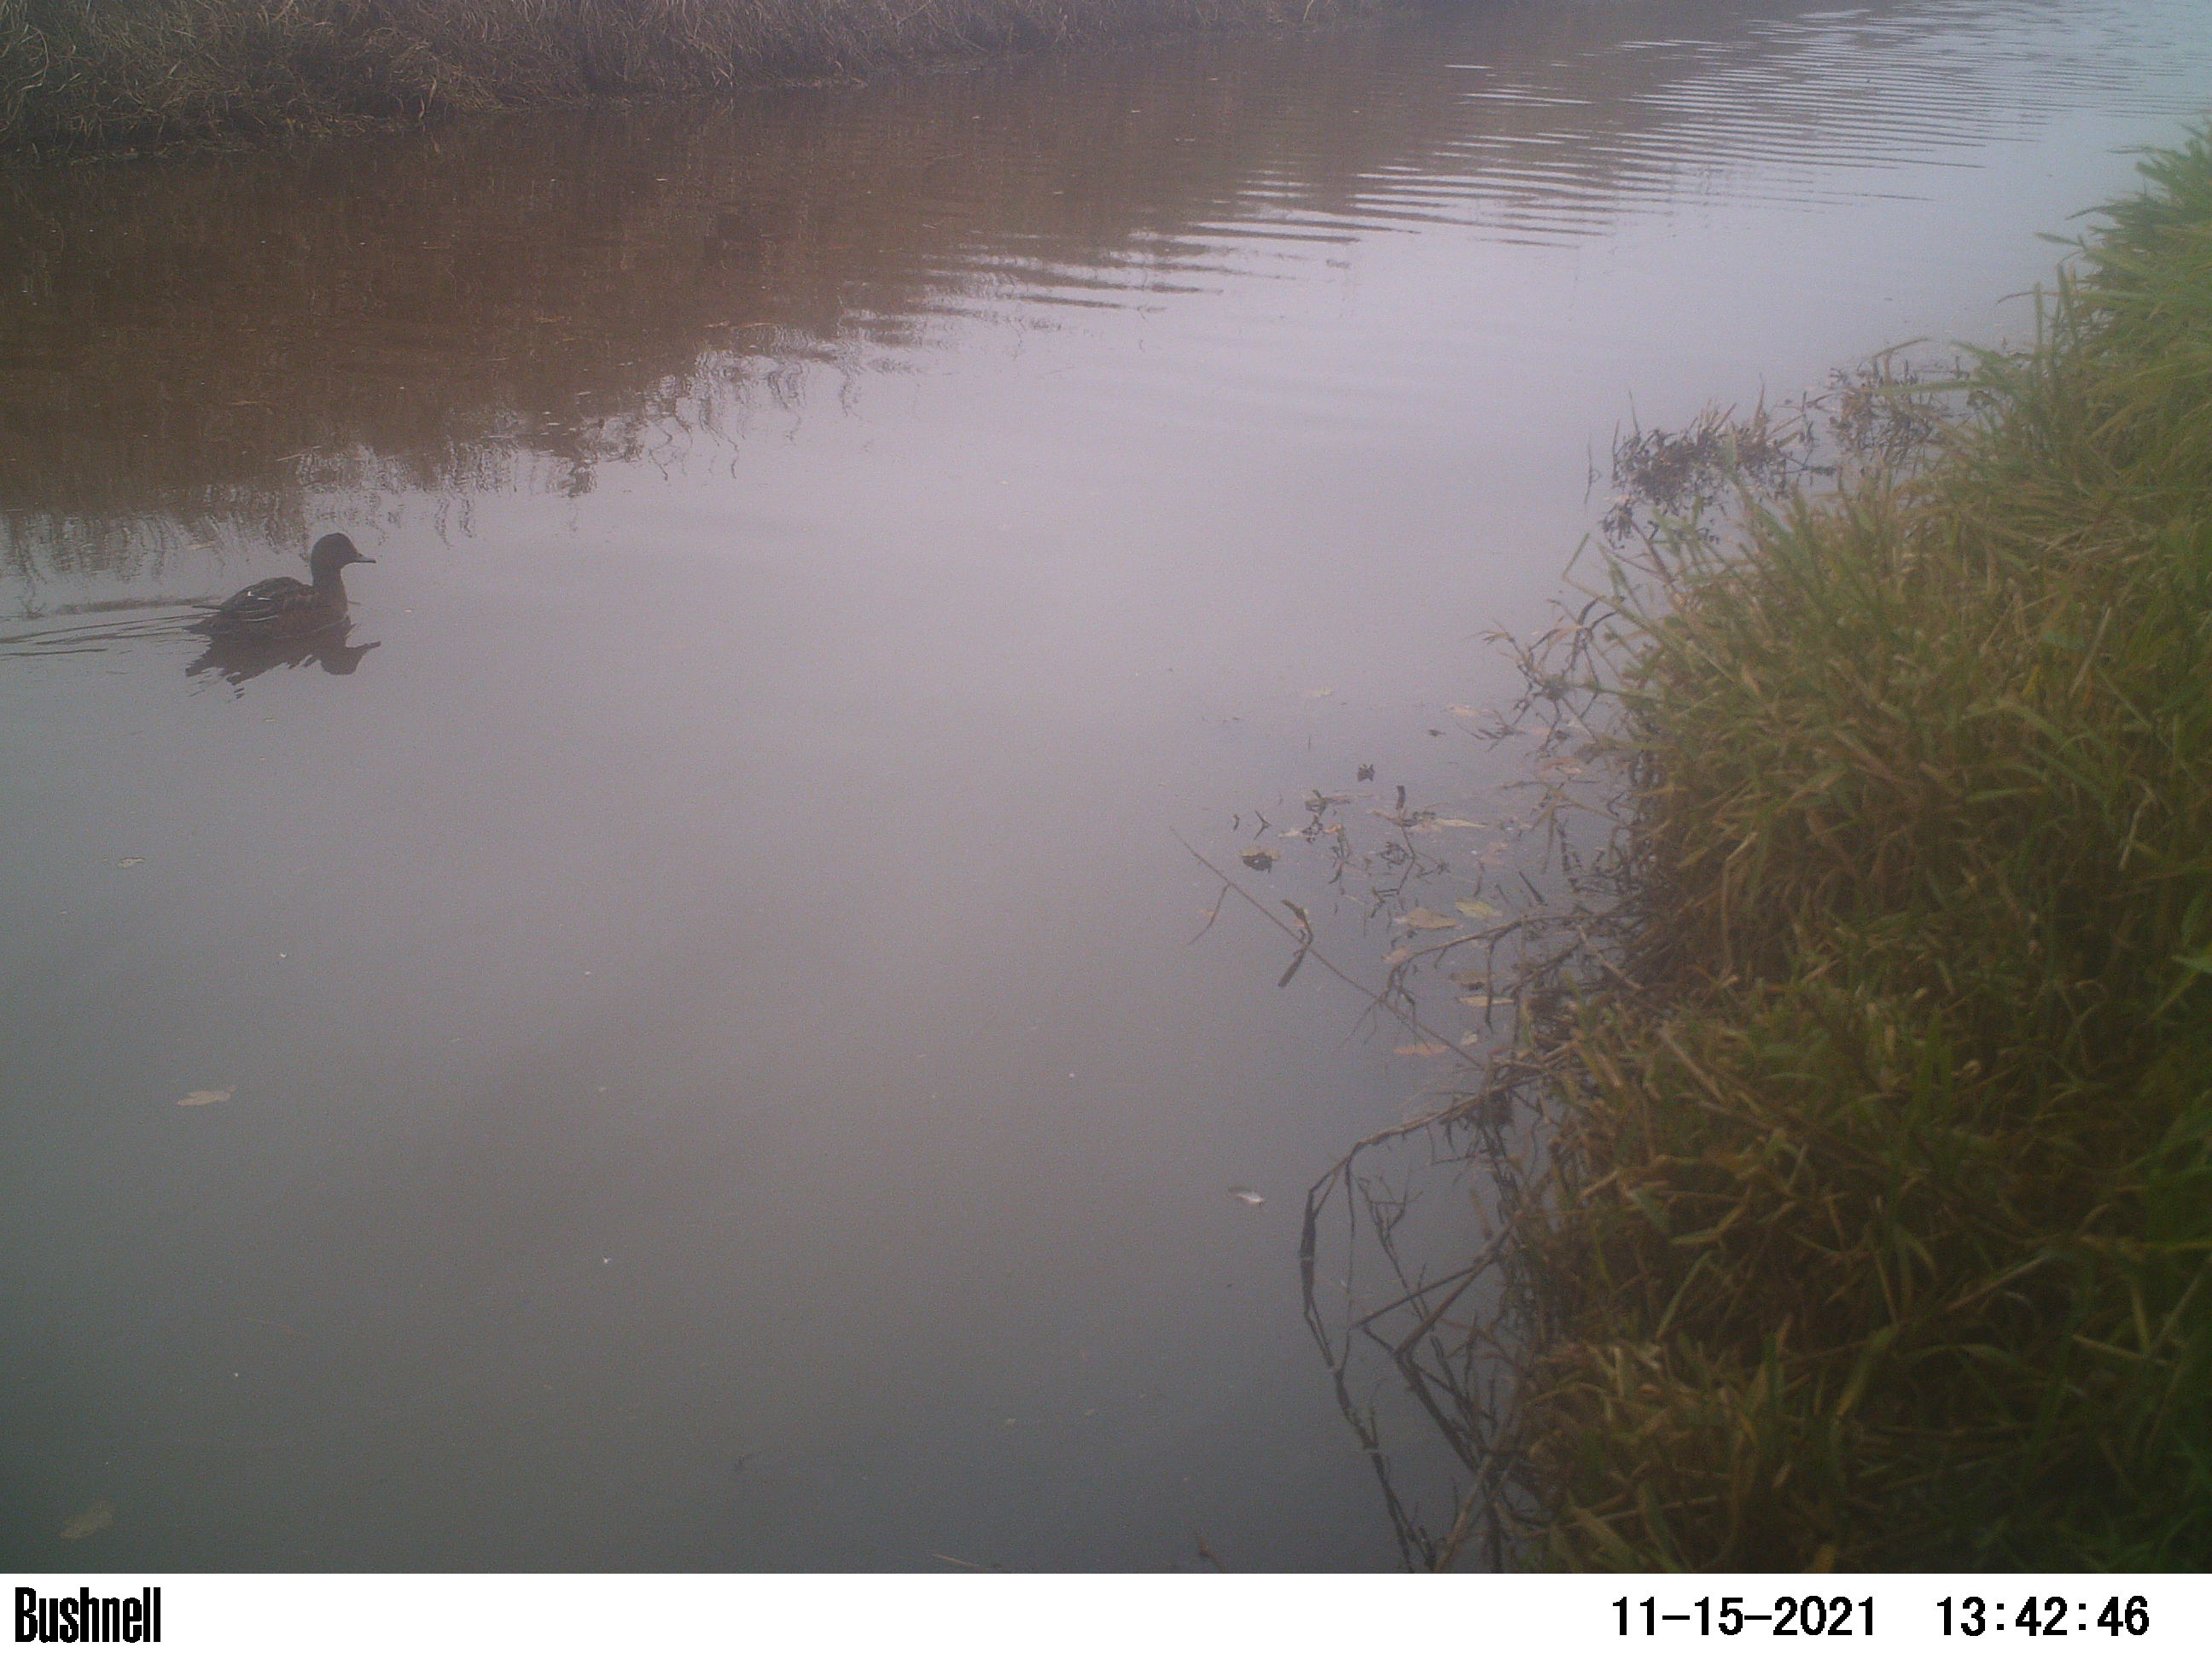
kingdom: Animalia
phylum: Chordata
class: Aves
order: Anseriformes
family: Anatidae
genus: Anas
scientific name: Anas
